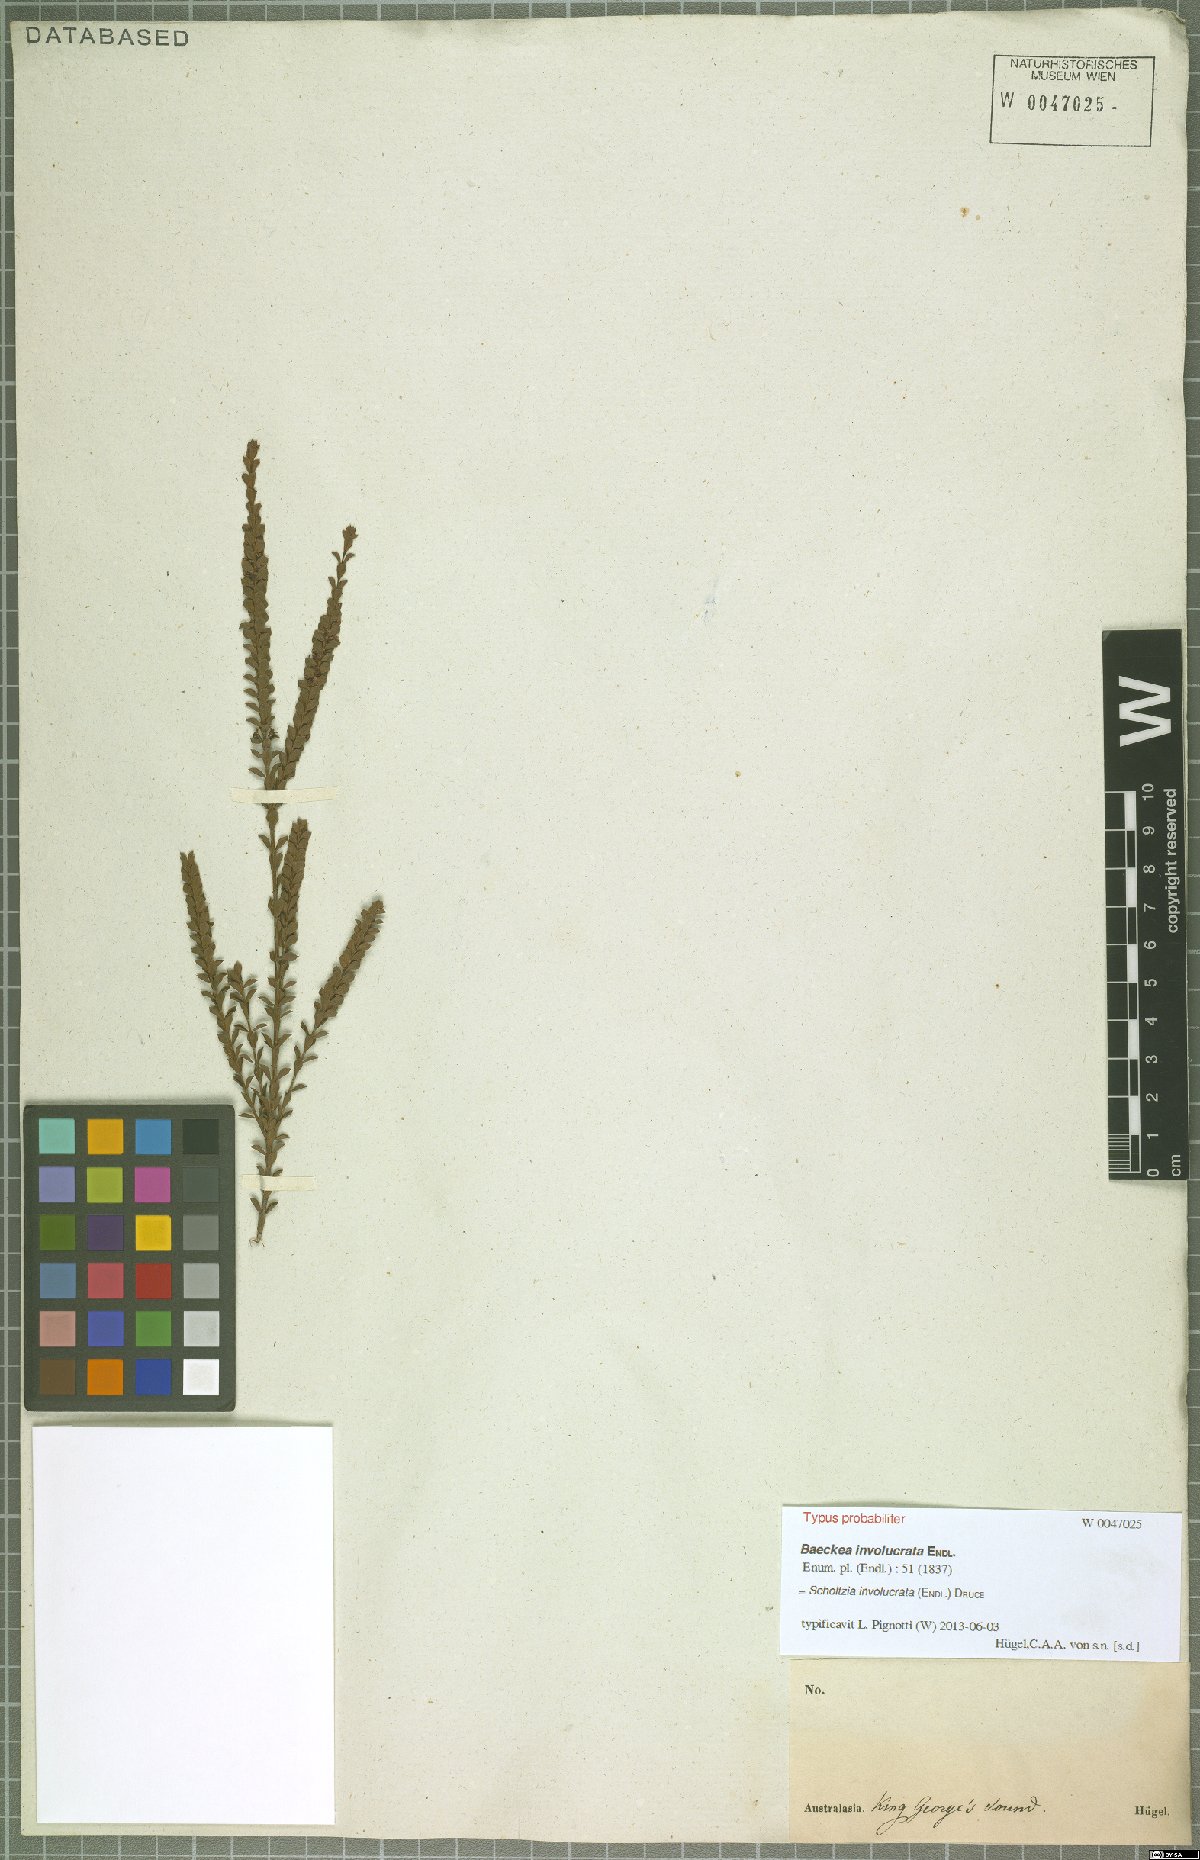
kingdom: Plantae
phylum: Tracheophyta
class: Magnoliopsida
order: Myrtales
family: Myrtaceae
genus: Scholtzia
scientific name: Scholtzia obovata
